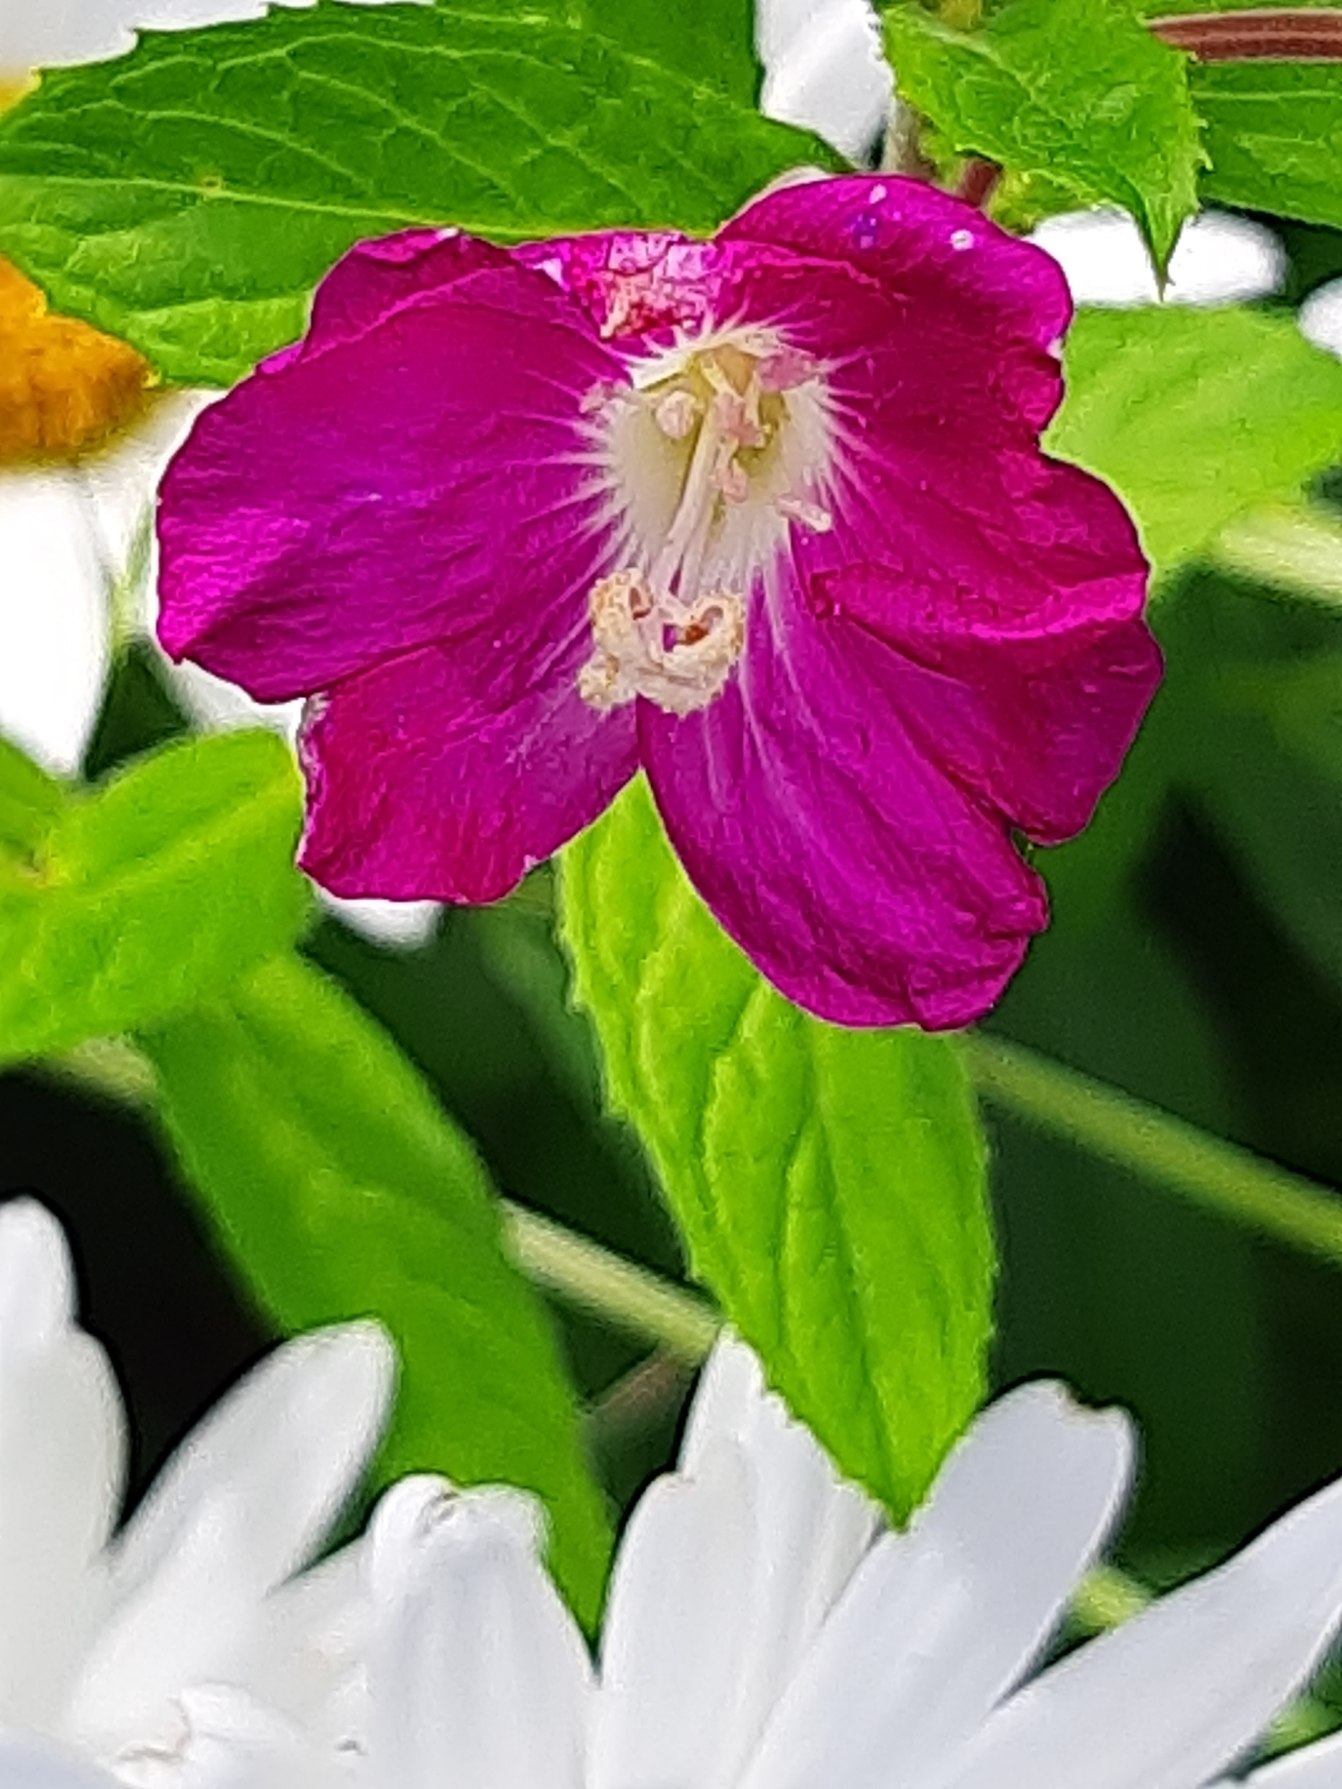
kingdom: Plantae
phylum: Tracheophyta
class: Magnoliopsida
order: Myrtales
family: Onagraceae
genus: Epilobium
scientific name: Epilobium hirsutum
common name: Lådden dueurt
